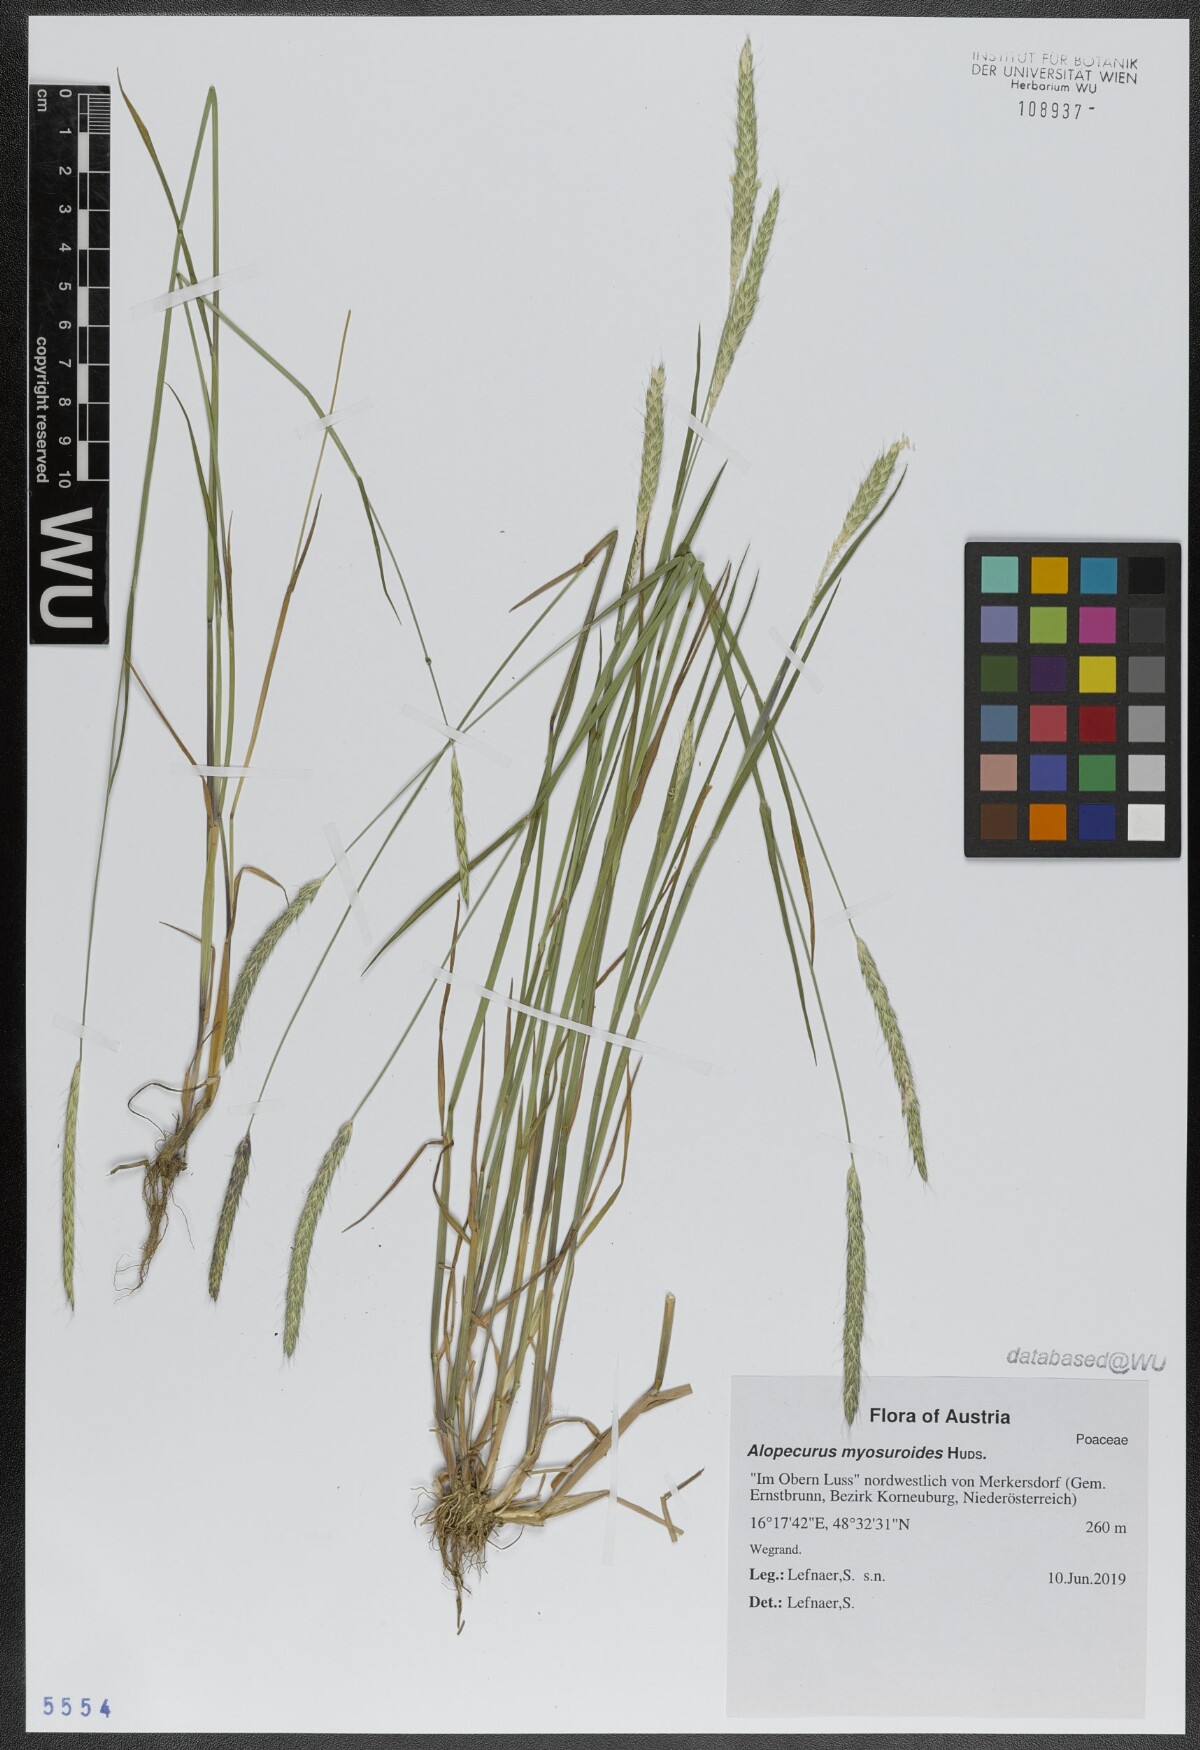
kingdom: Plantae
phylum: Tracheophyta
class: Liliopsida
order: Poales
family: Poaceae
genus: Alopecurus
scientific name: Alopecurus myosuroides
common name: Black-grass
